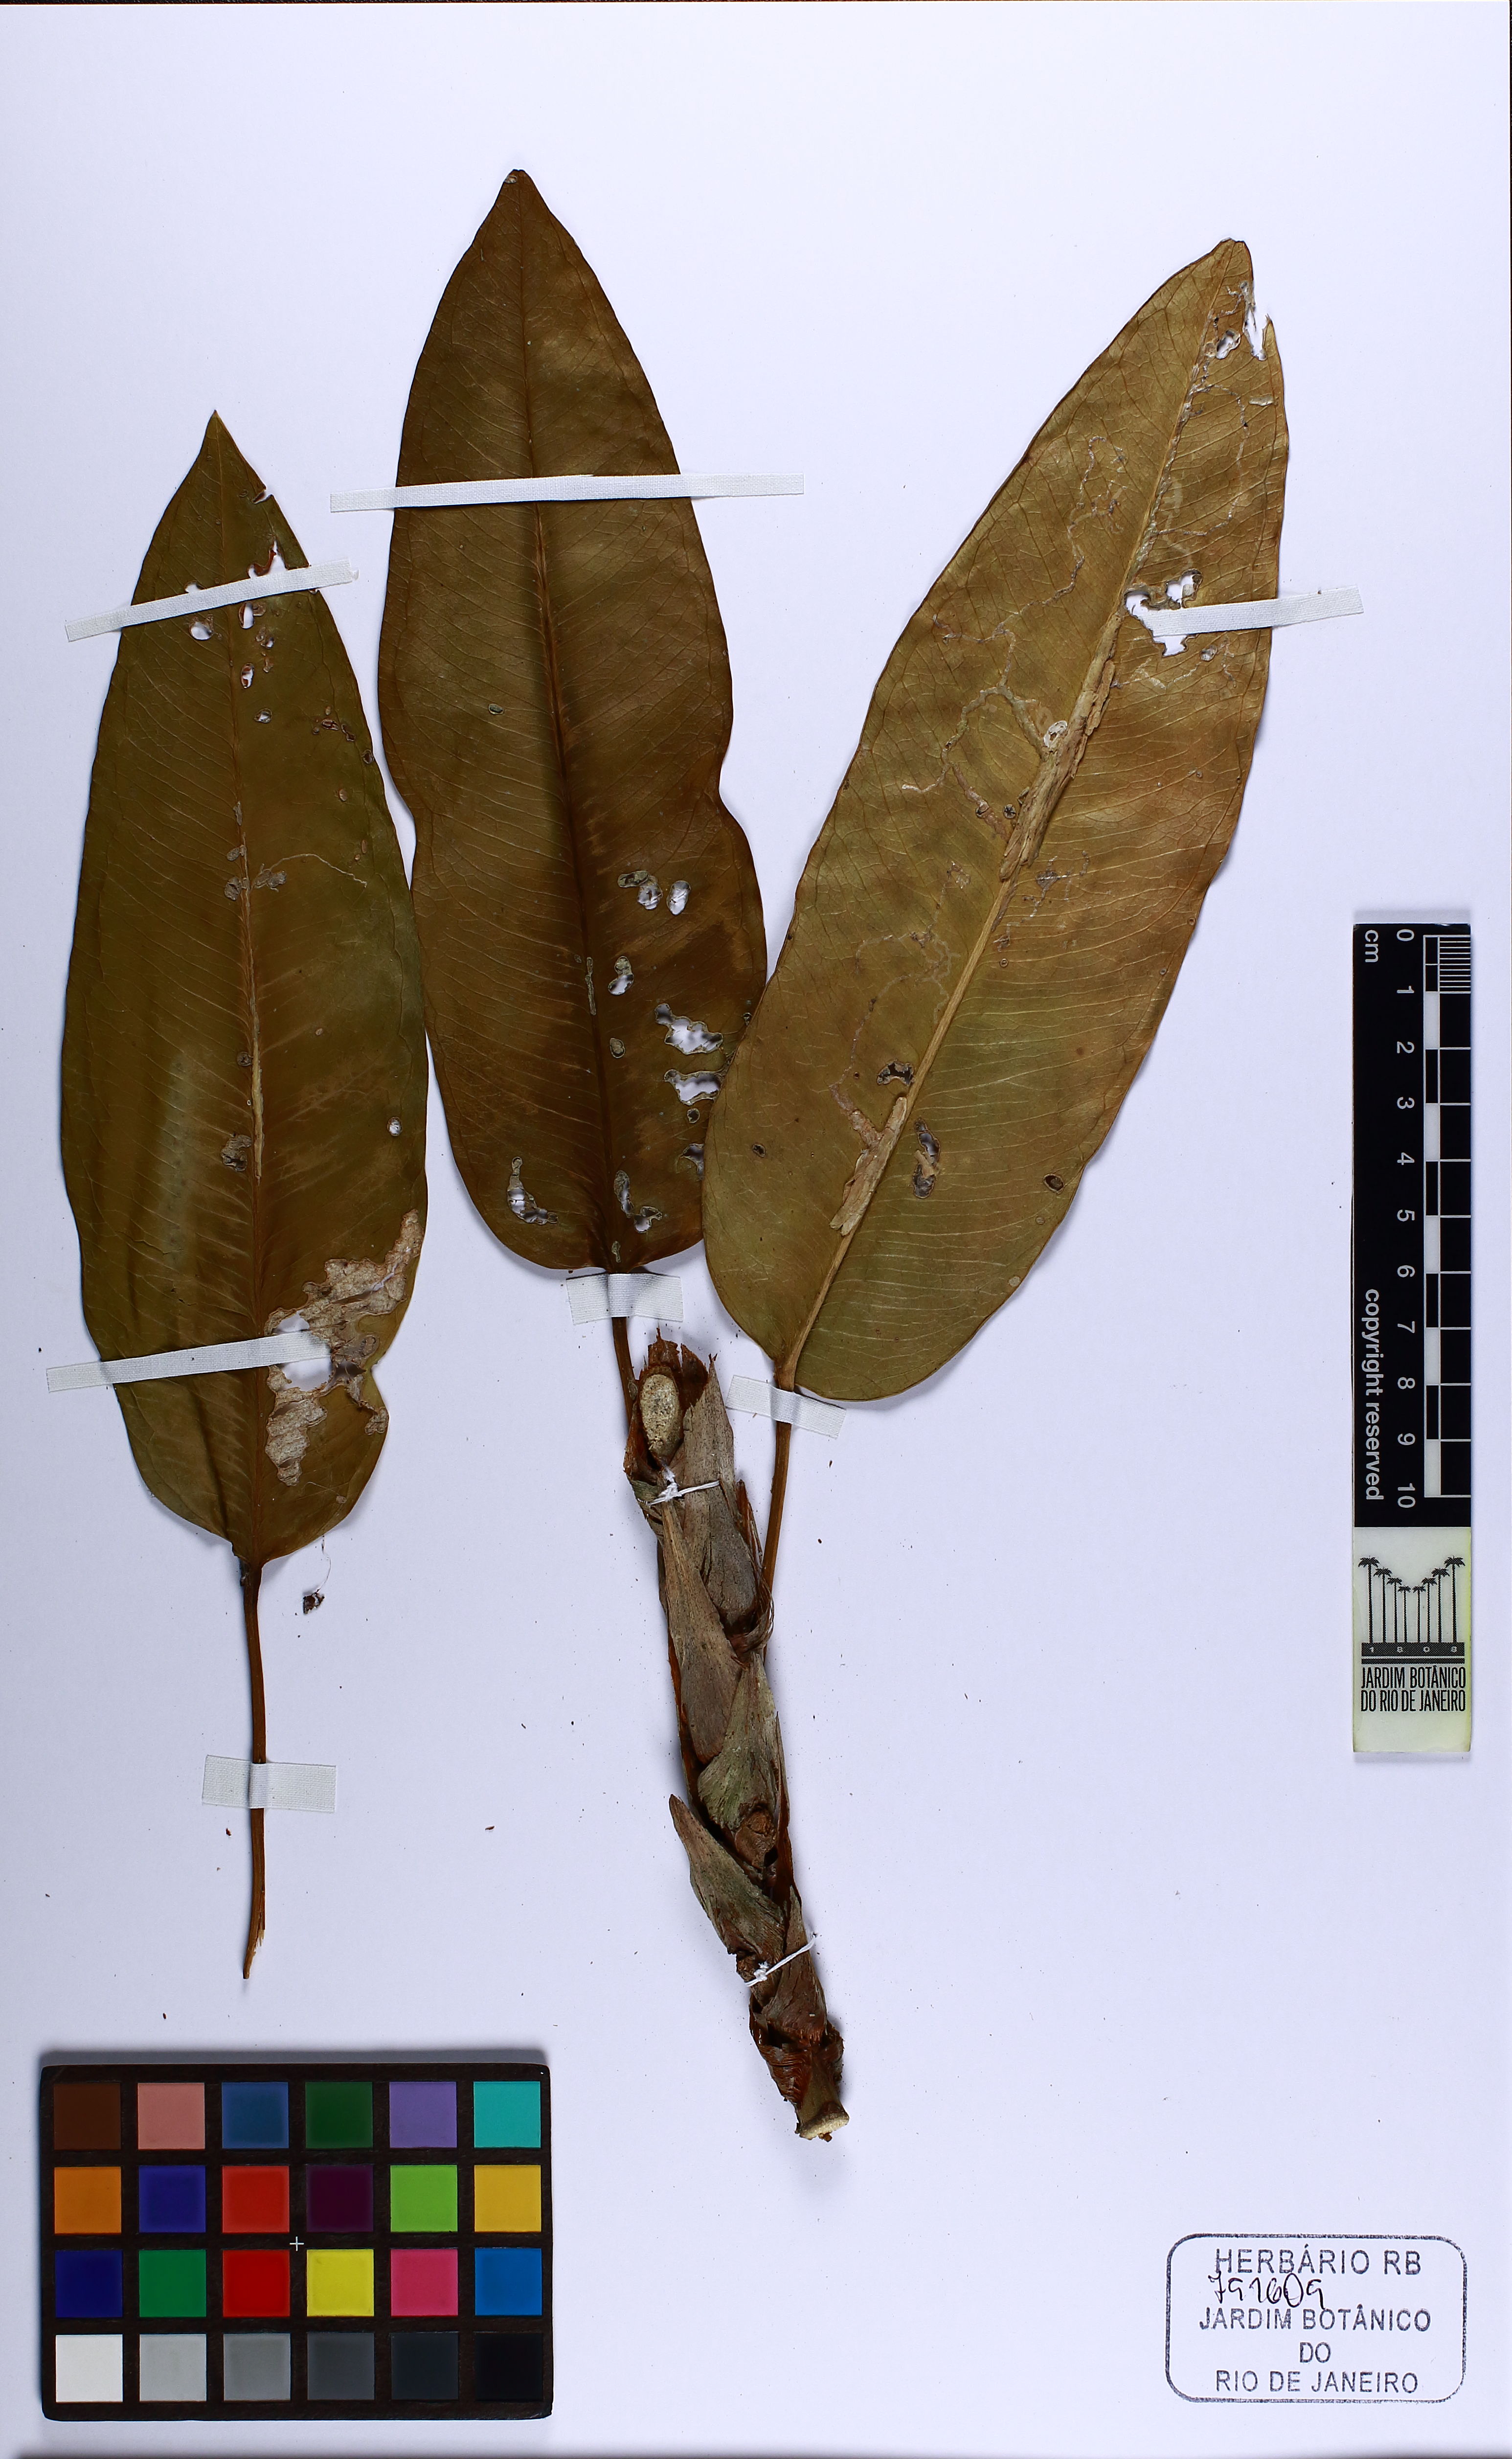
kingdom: Plantae
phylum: Tracheophyta
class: Liliopsida
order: Alismatales
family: Araceae
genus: Anthurium
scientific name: Anthurium
